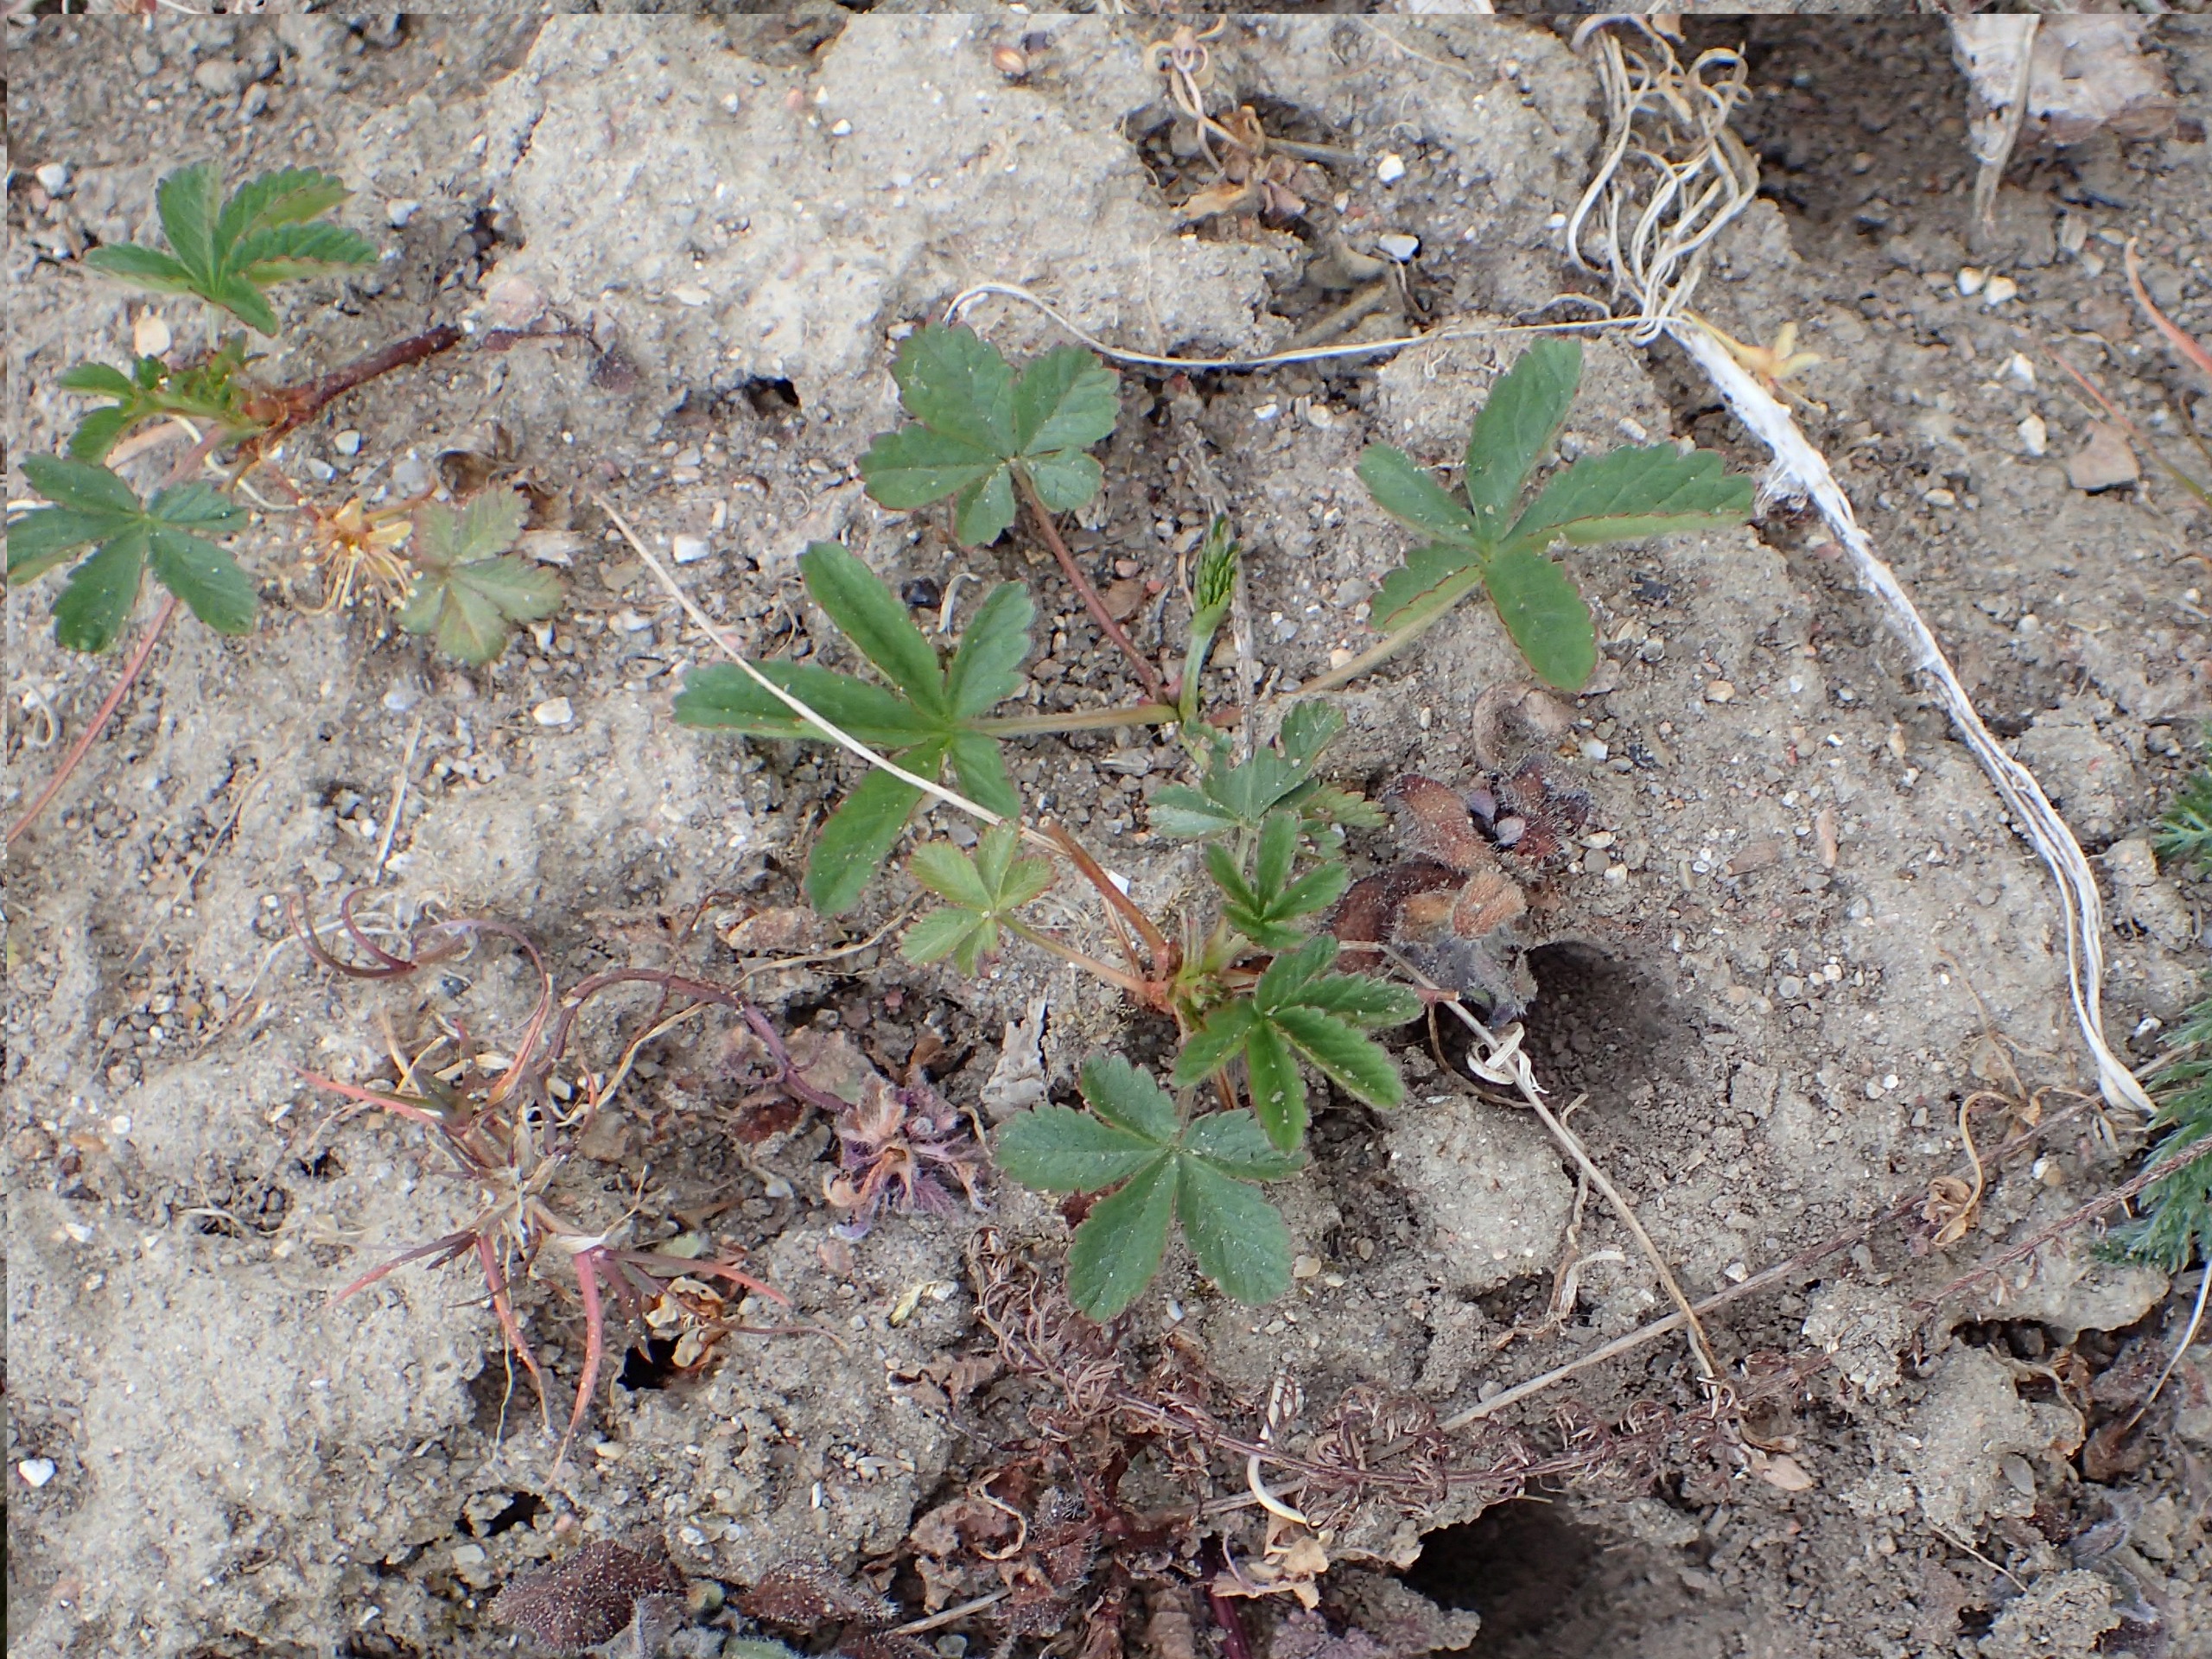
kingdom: Plantae
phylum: Tracheophyta
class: Magnoliopsida
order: Rosales
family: Rosaceae
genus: Potentilla
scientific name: Potentilla reptans
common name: Krybende potentil
